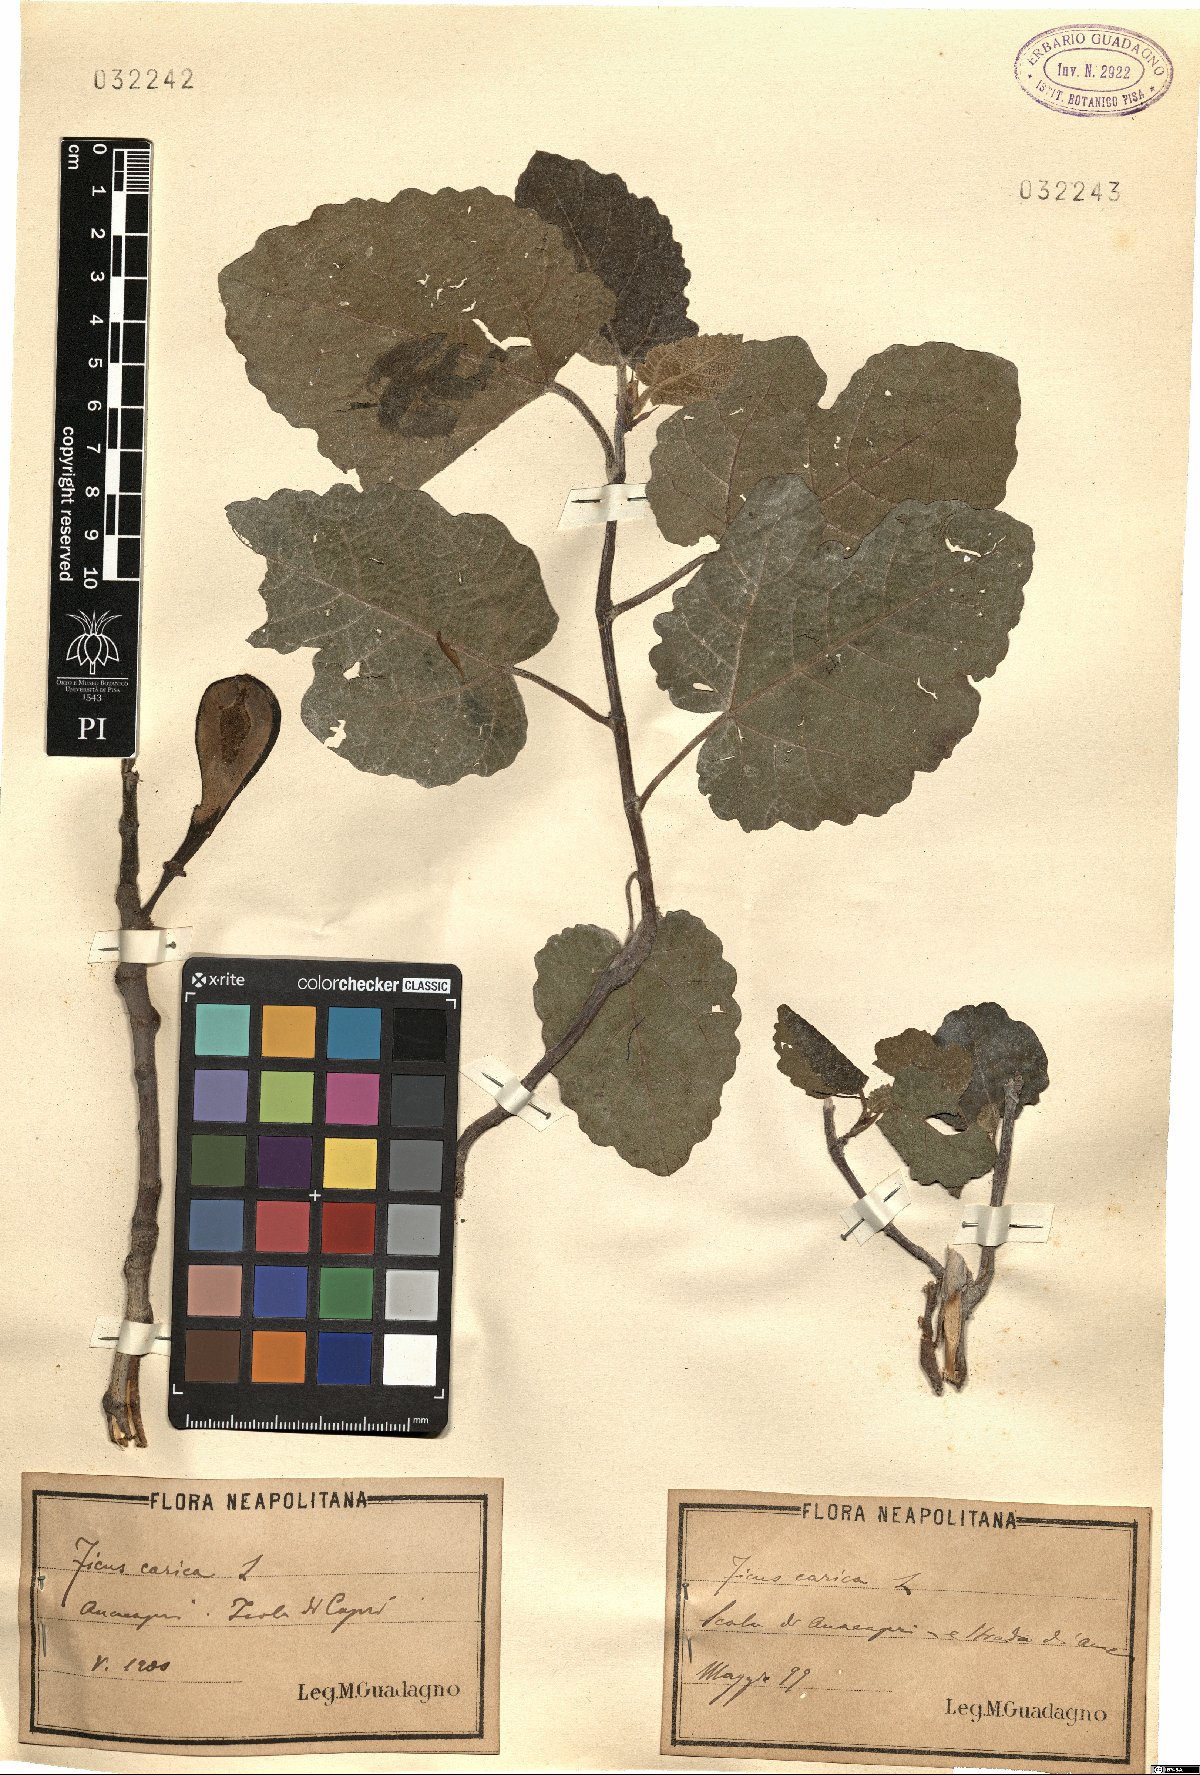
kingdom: Plantae
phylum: Tracheophyta
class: Magnoliopsida
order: Rosales
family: Moraceae
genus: Ficus
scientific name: Ficus carica
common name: Fig
